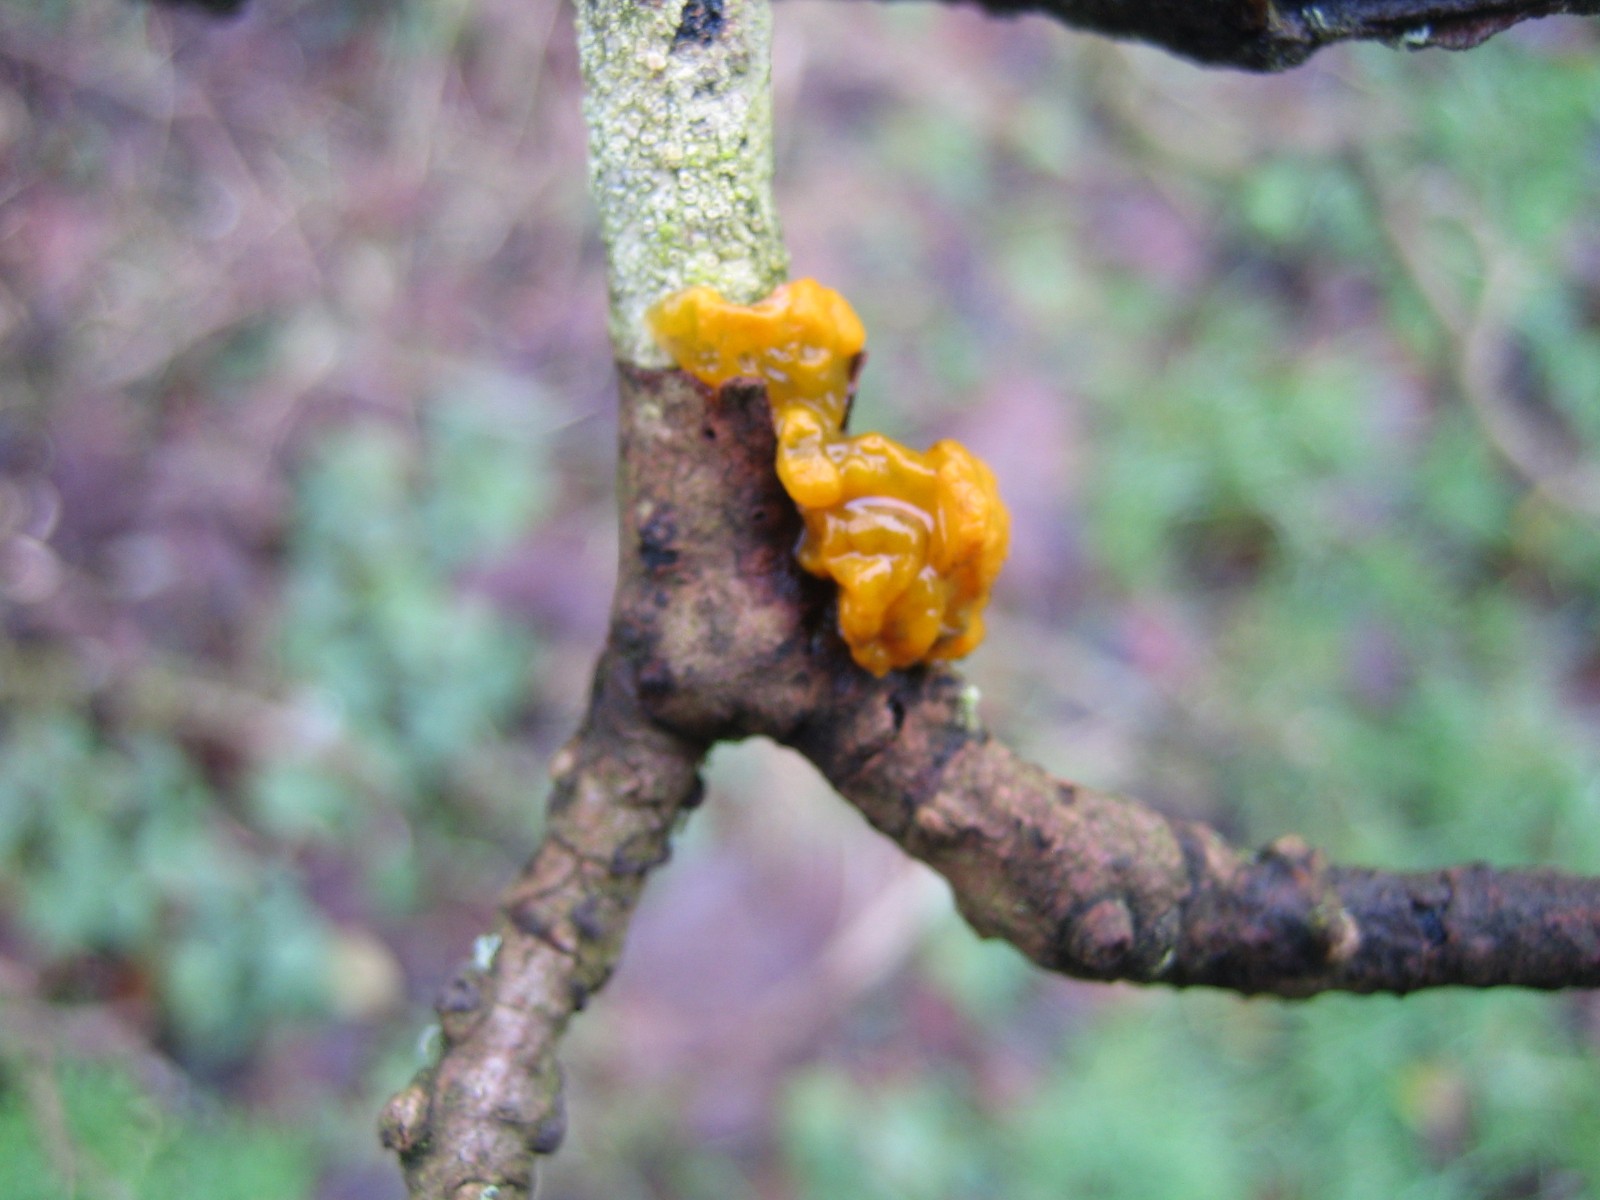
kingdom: Fungi
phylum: Basidiomycota
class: Tremellomycetes
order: Tremellales
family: Tremellaceae
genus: Tremella
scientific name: Tremella mesenterica
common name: gul bævresvamp
